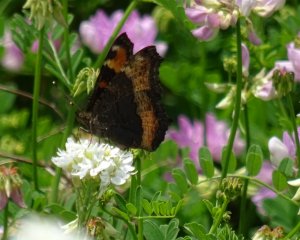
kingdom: Animalia
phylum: Arthropoda
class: Insecta
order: Lepidoptera
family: Nymphalidae
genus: Aglais
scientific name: Aglais milberti
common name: Milbert's Tortoiseshell
